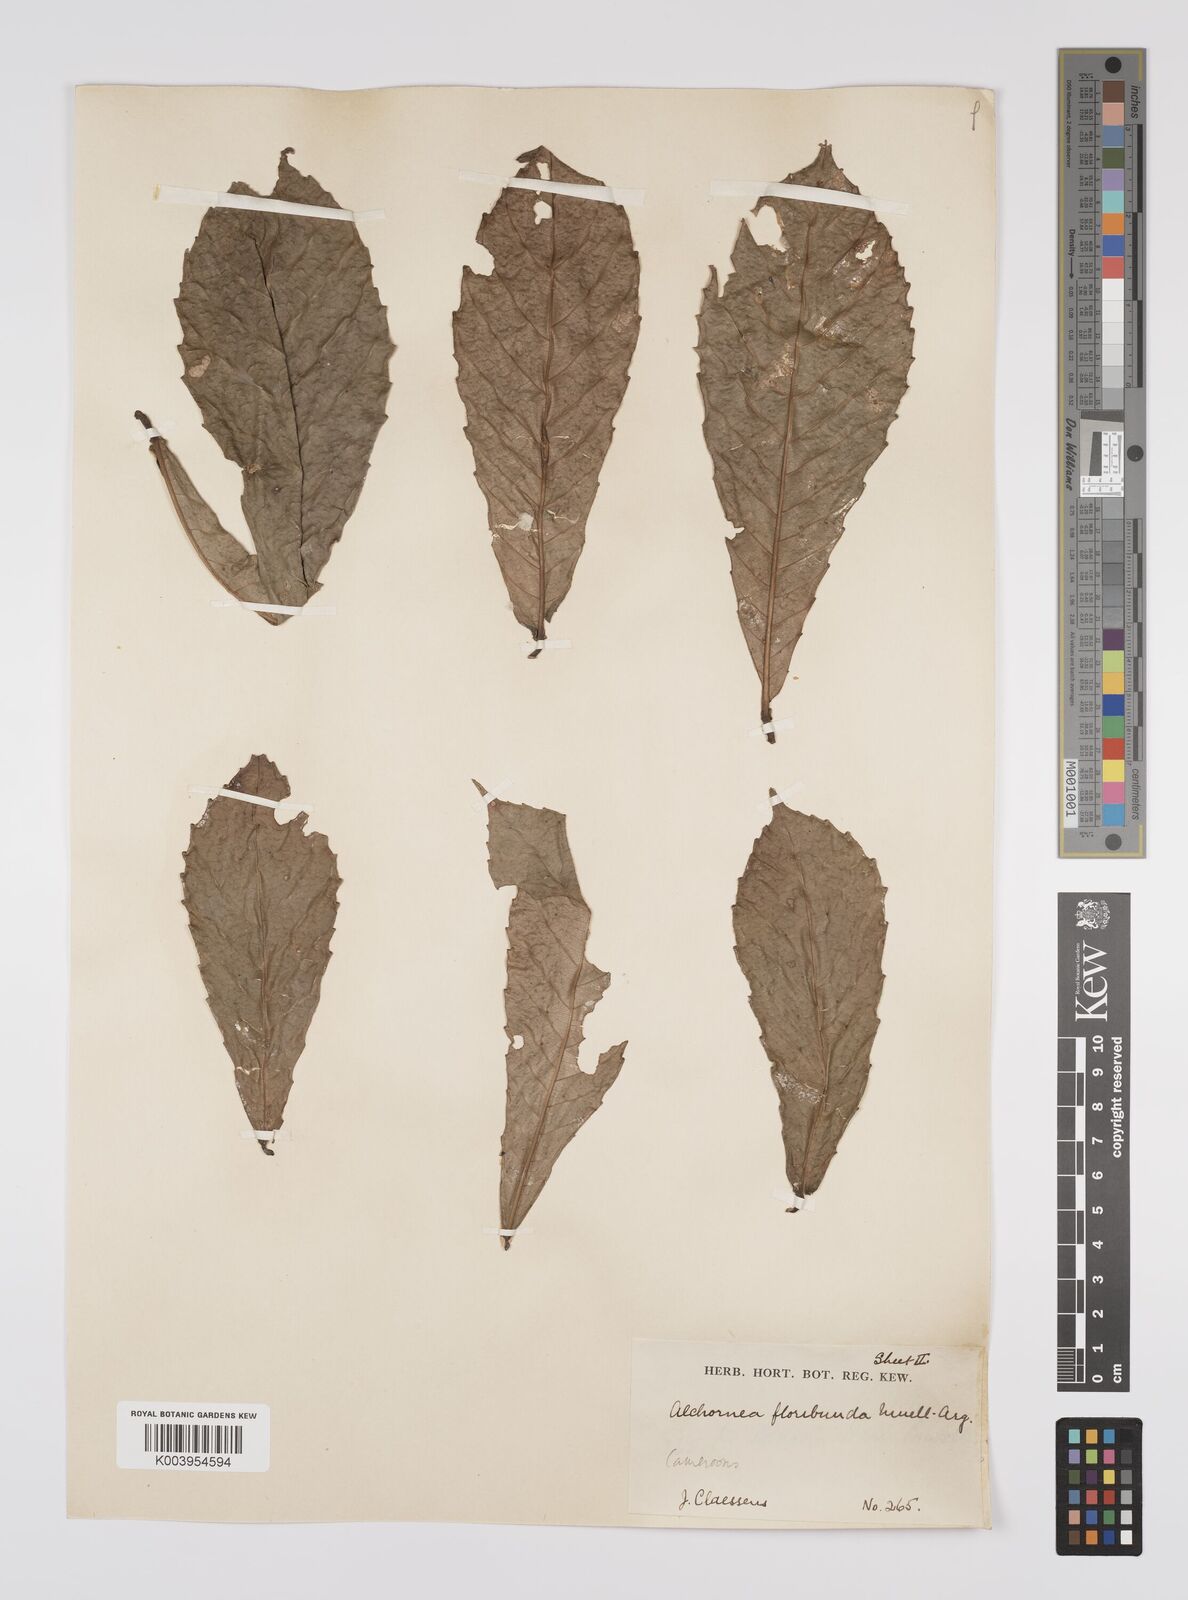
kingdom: Plantae
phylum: Tracheophyta
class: Magnoliopsida
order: Malpighiales
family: Euphorbiaceae
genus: Alchornea
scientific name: Alchornea floribunda
